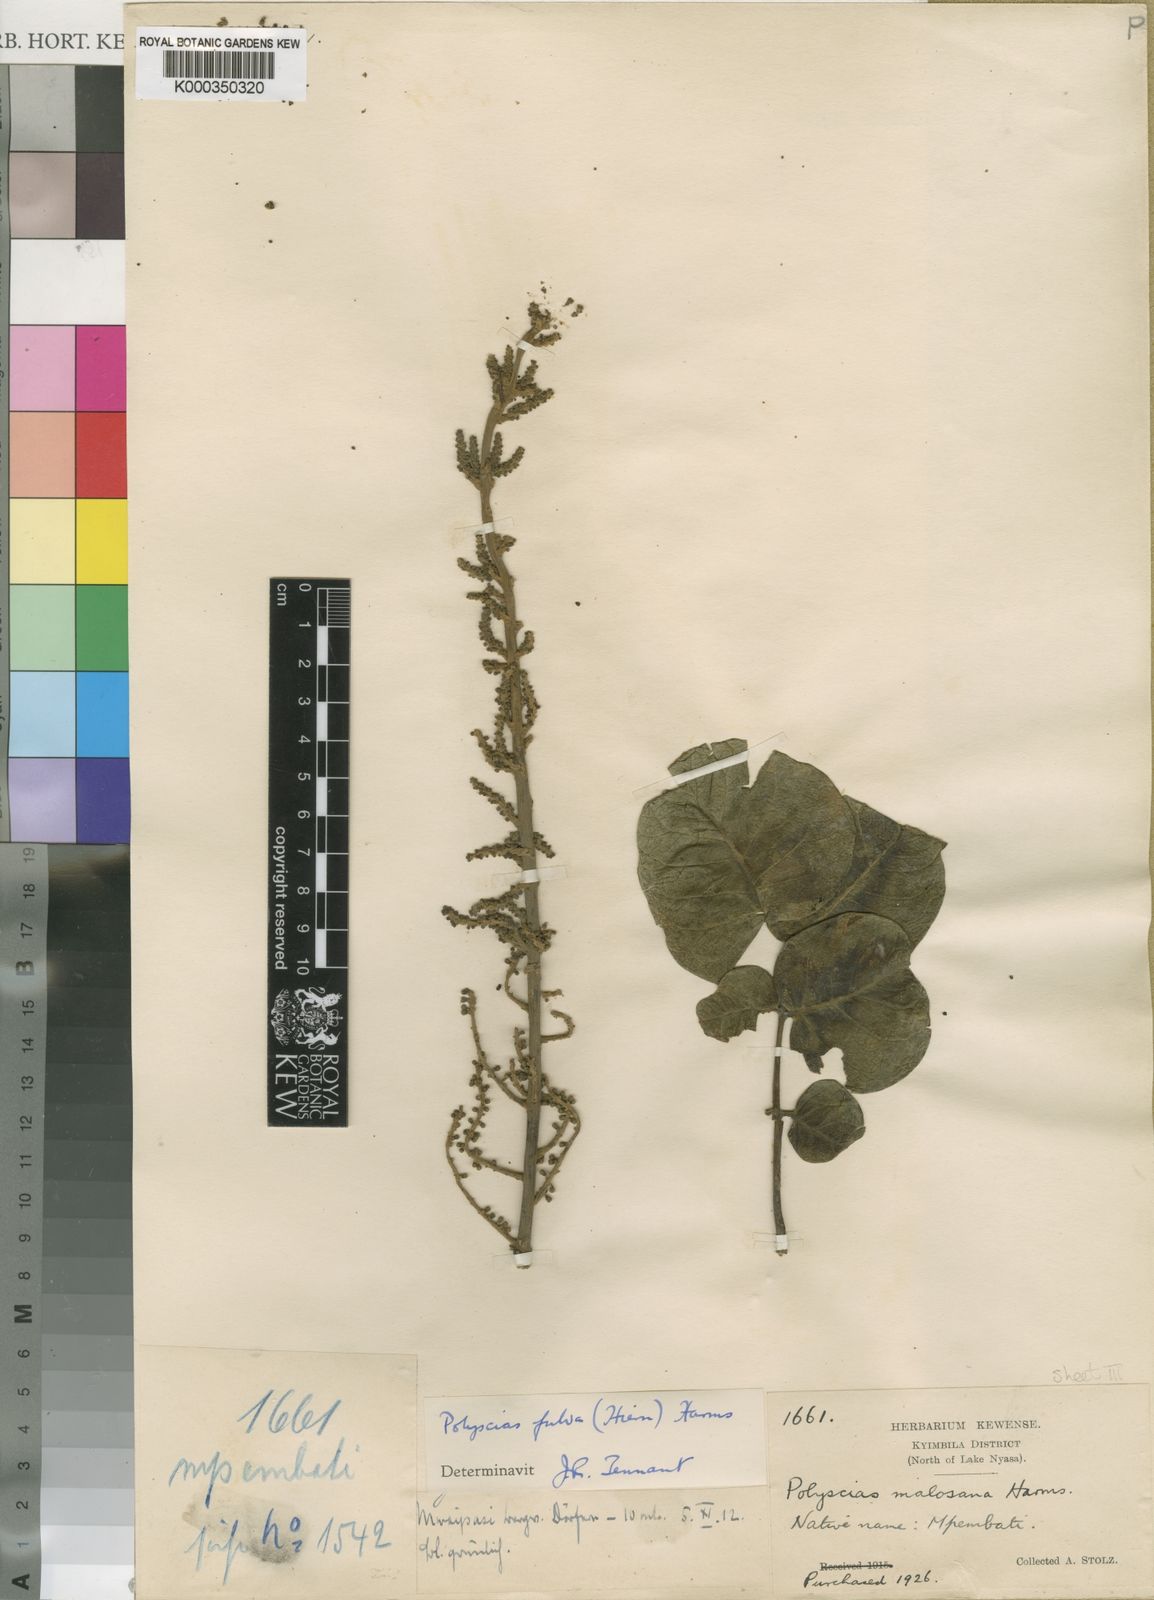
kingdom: Plantae
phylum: Tracheophyta
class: Magnoliopsida
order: Apiales
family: Araliaceae
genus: Polyscias
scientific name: Polyscias fulva
